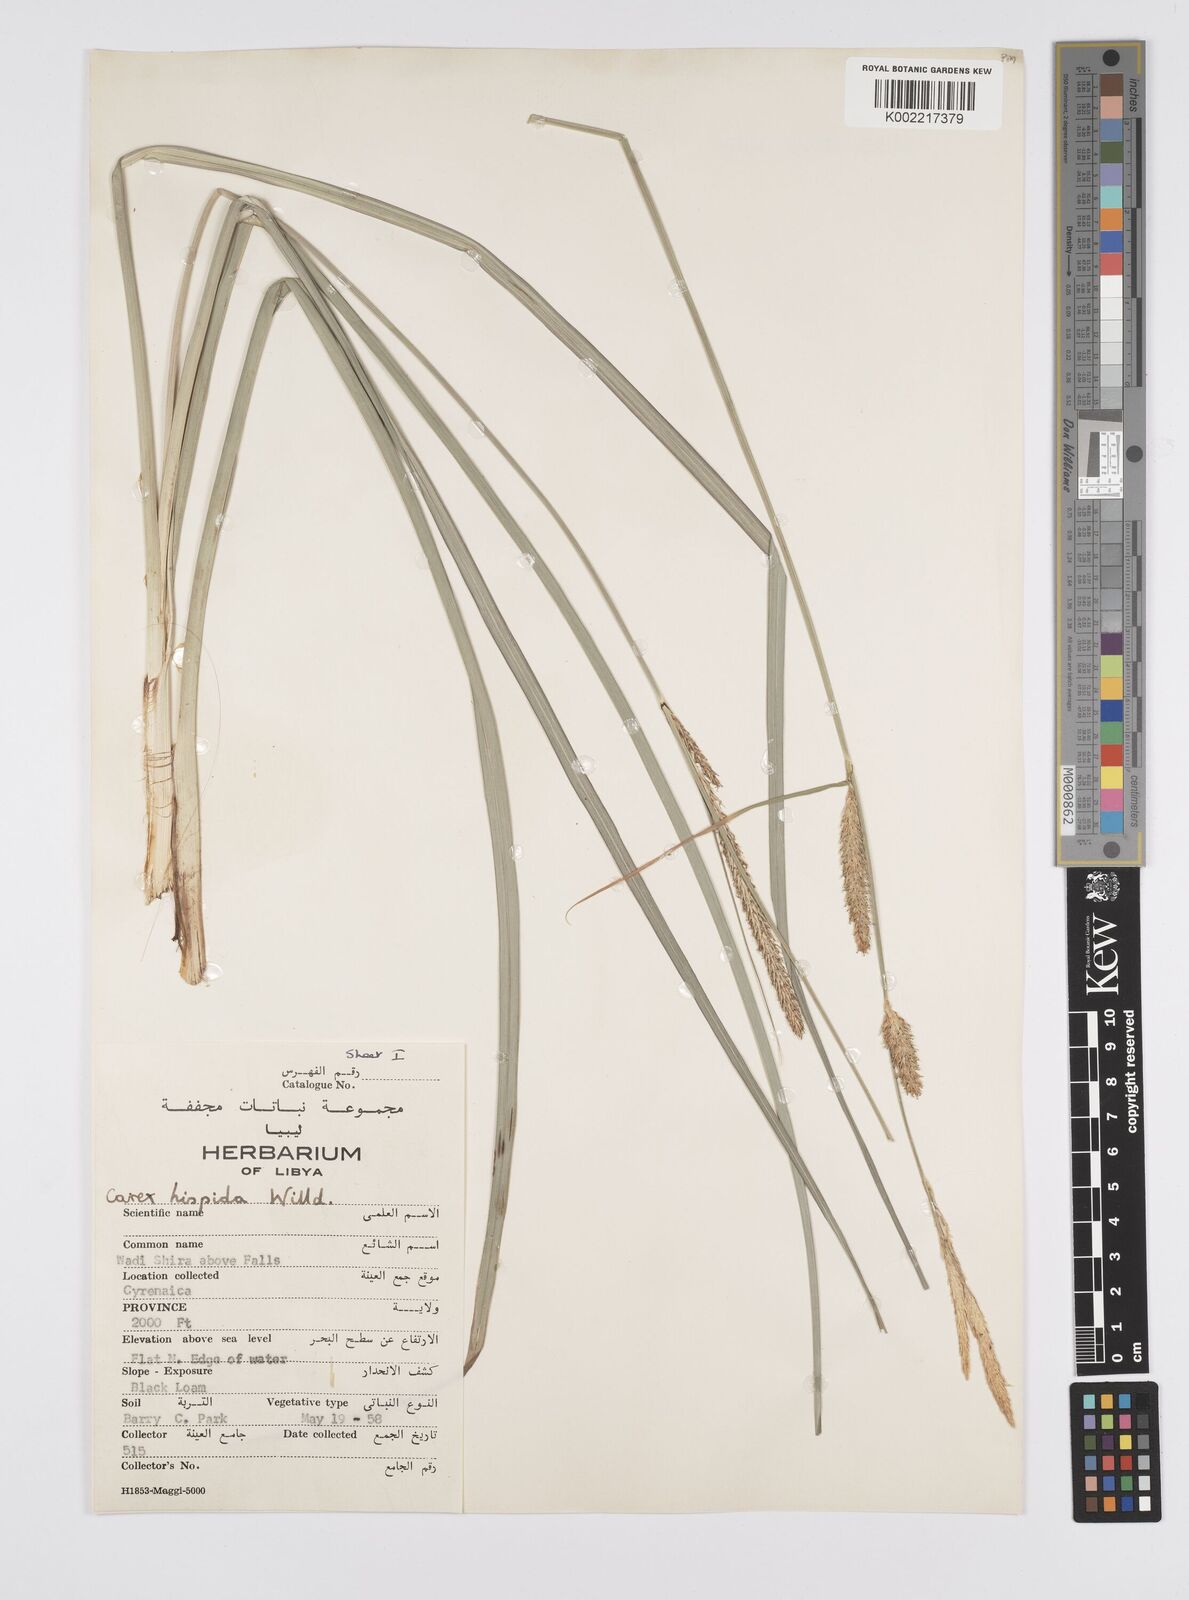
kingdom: Plantae
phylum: Tracheophyta
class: Liliopsida
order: Poales
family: Cyperaceae
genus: Carex
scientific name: Carex hispida
